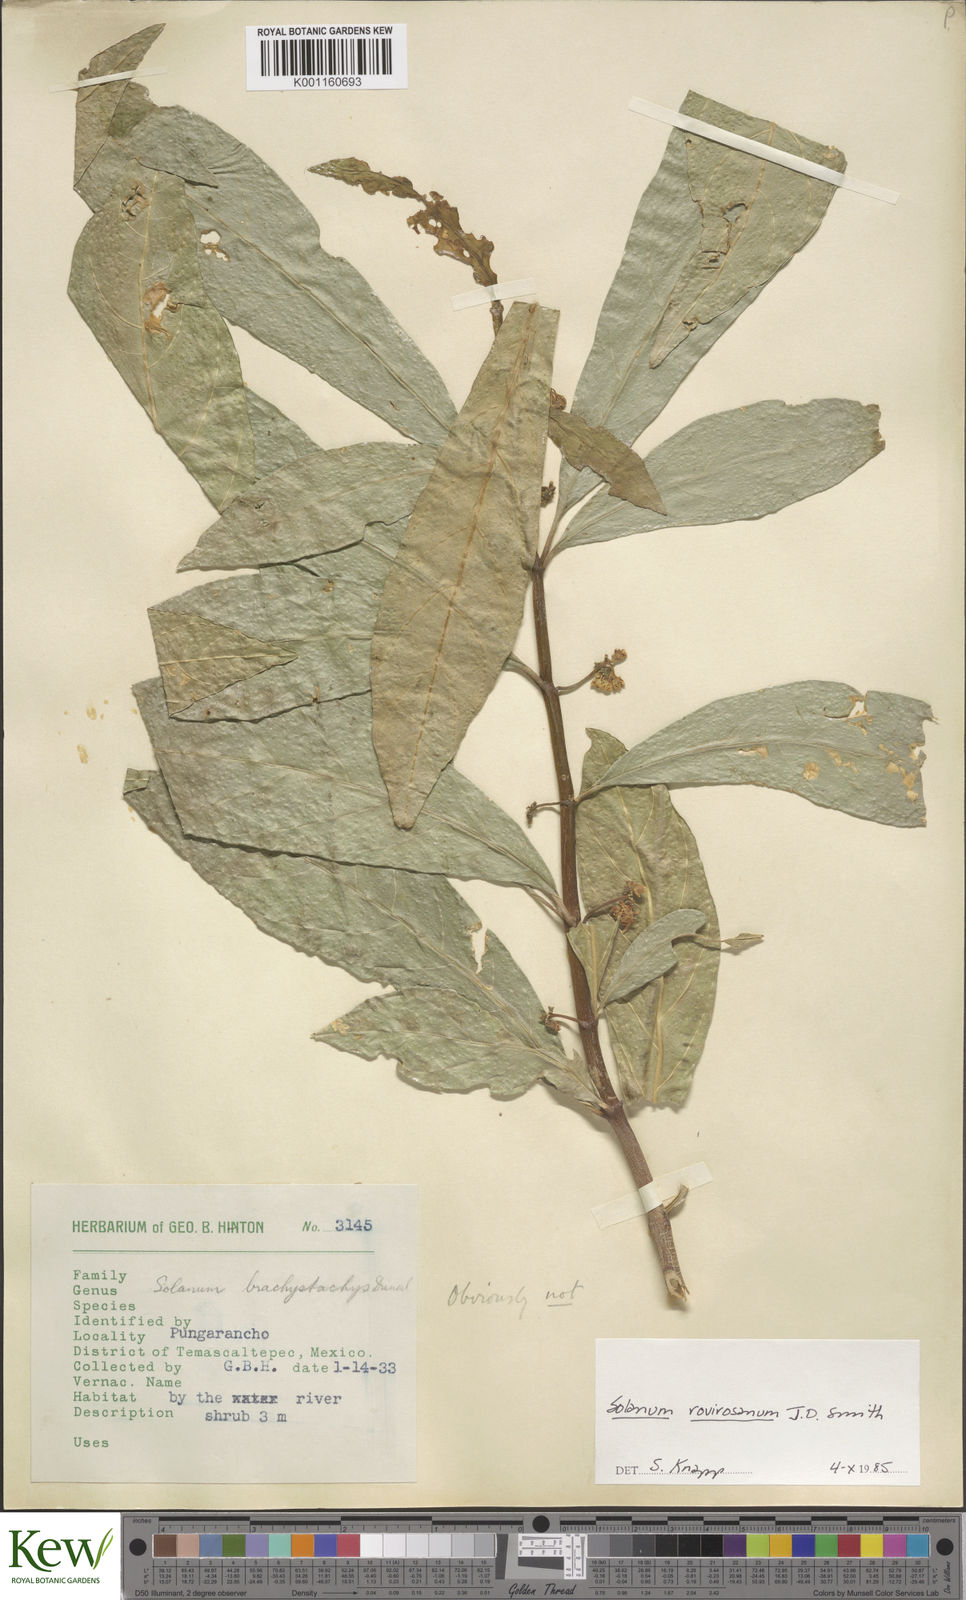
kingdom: Plantae
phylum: Tracheophyta
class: Magnoliopsida
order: Solanales
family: Solanaceae
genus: Solanum
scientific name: Solanum rovirosanum
